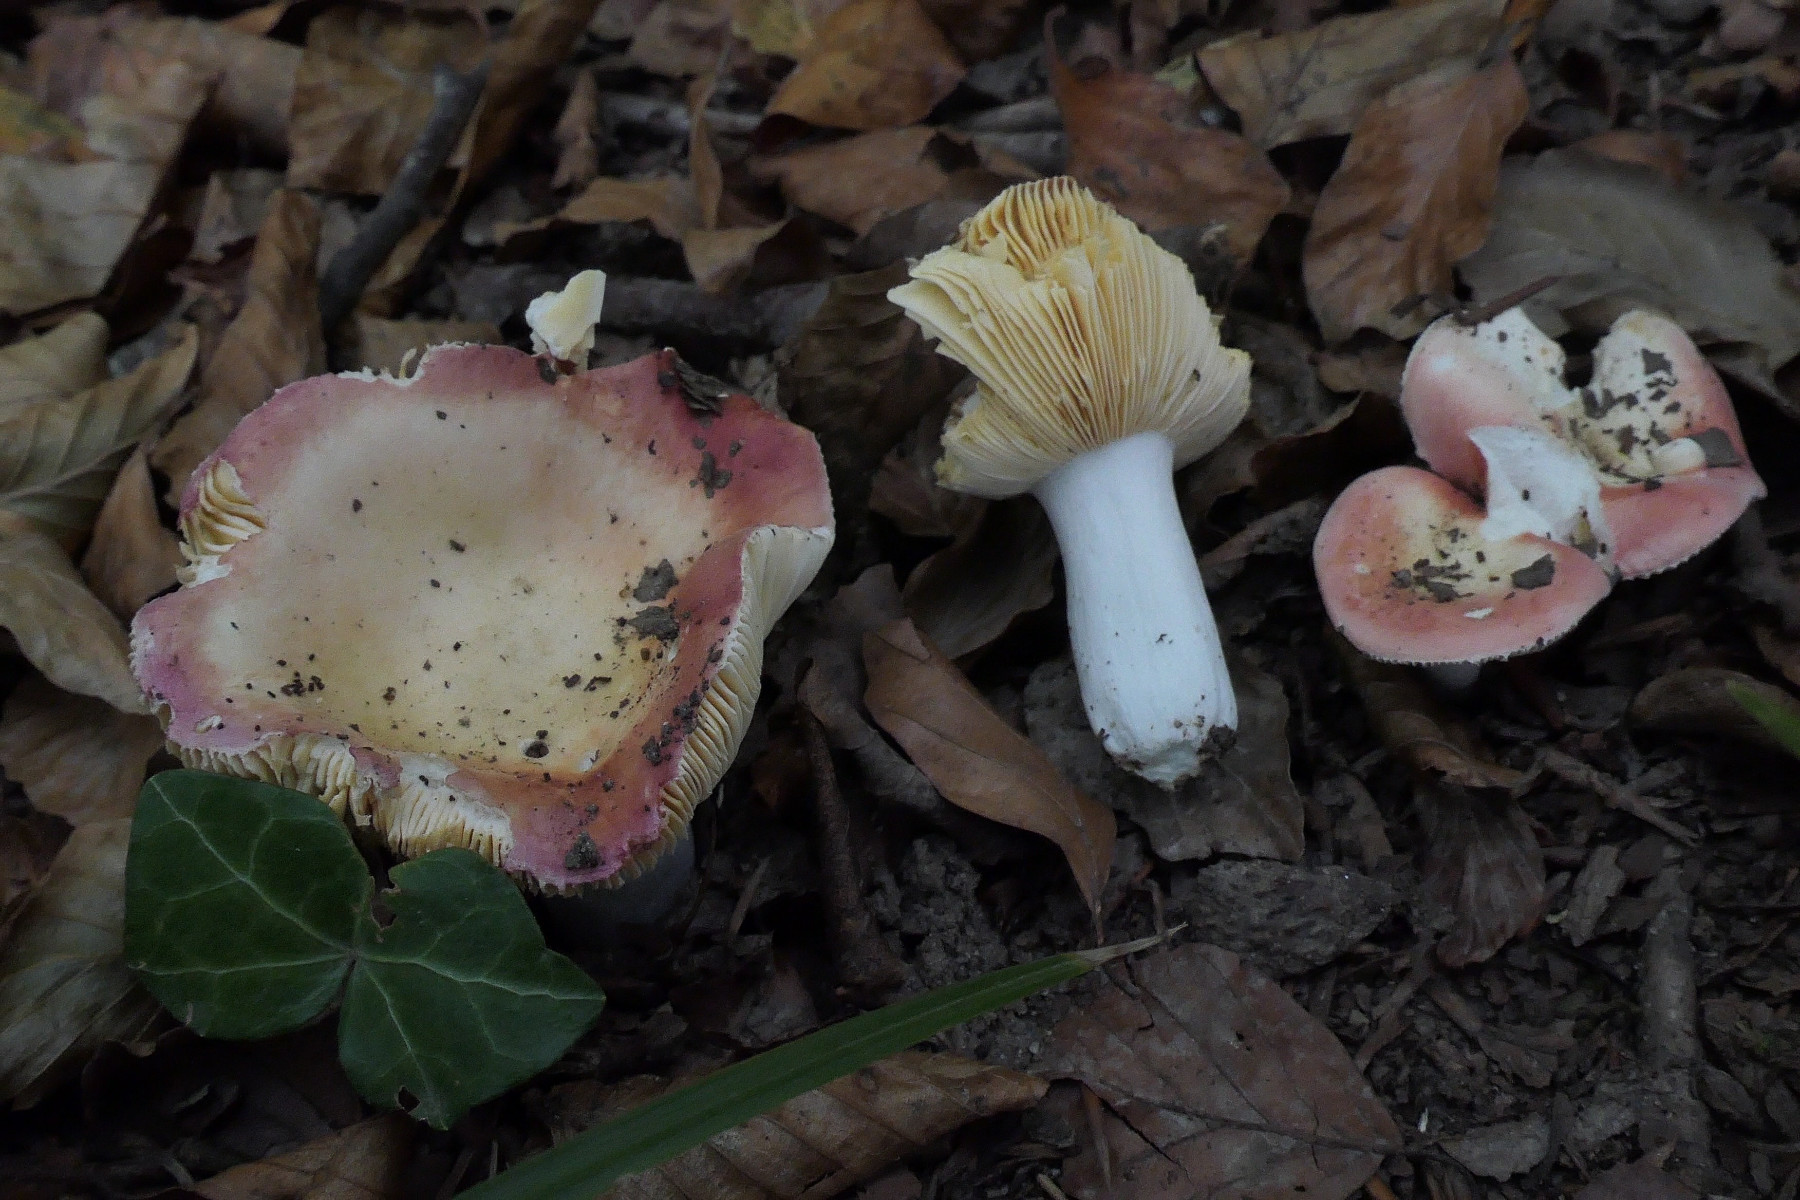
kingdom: Fungi
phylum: Basidiomycota
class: Agaricomycetes
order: Russulales
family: Russulaceae
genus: Russula
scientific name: Russula
